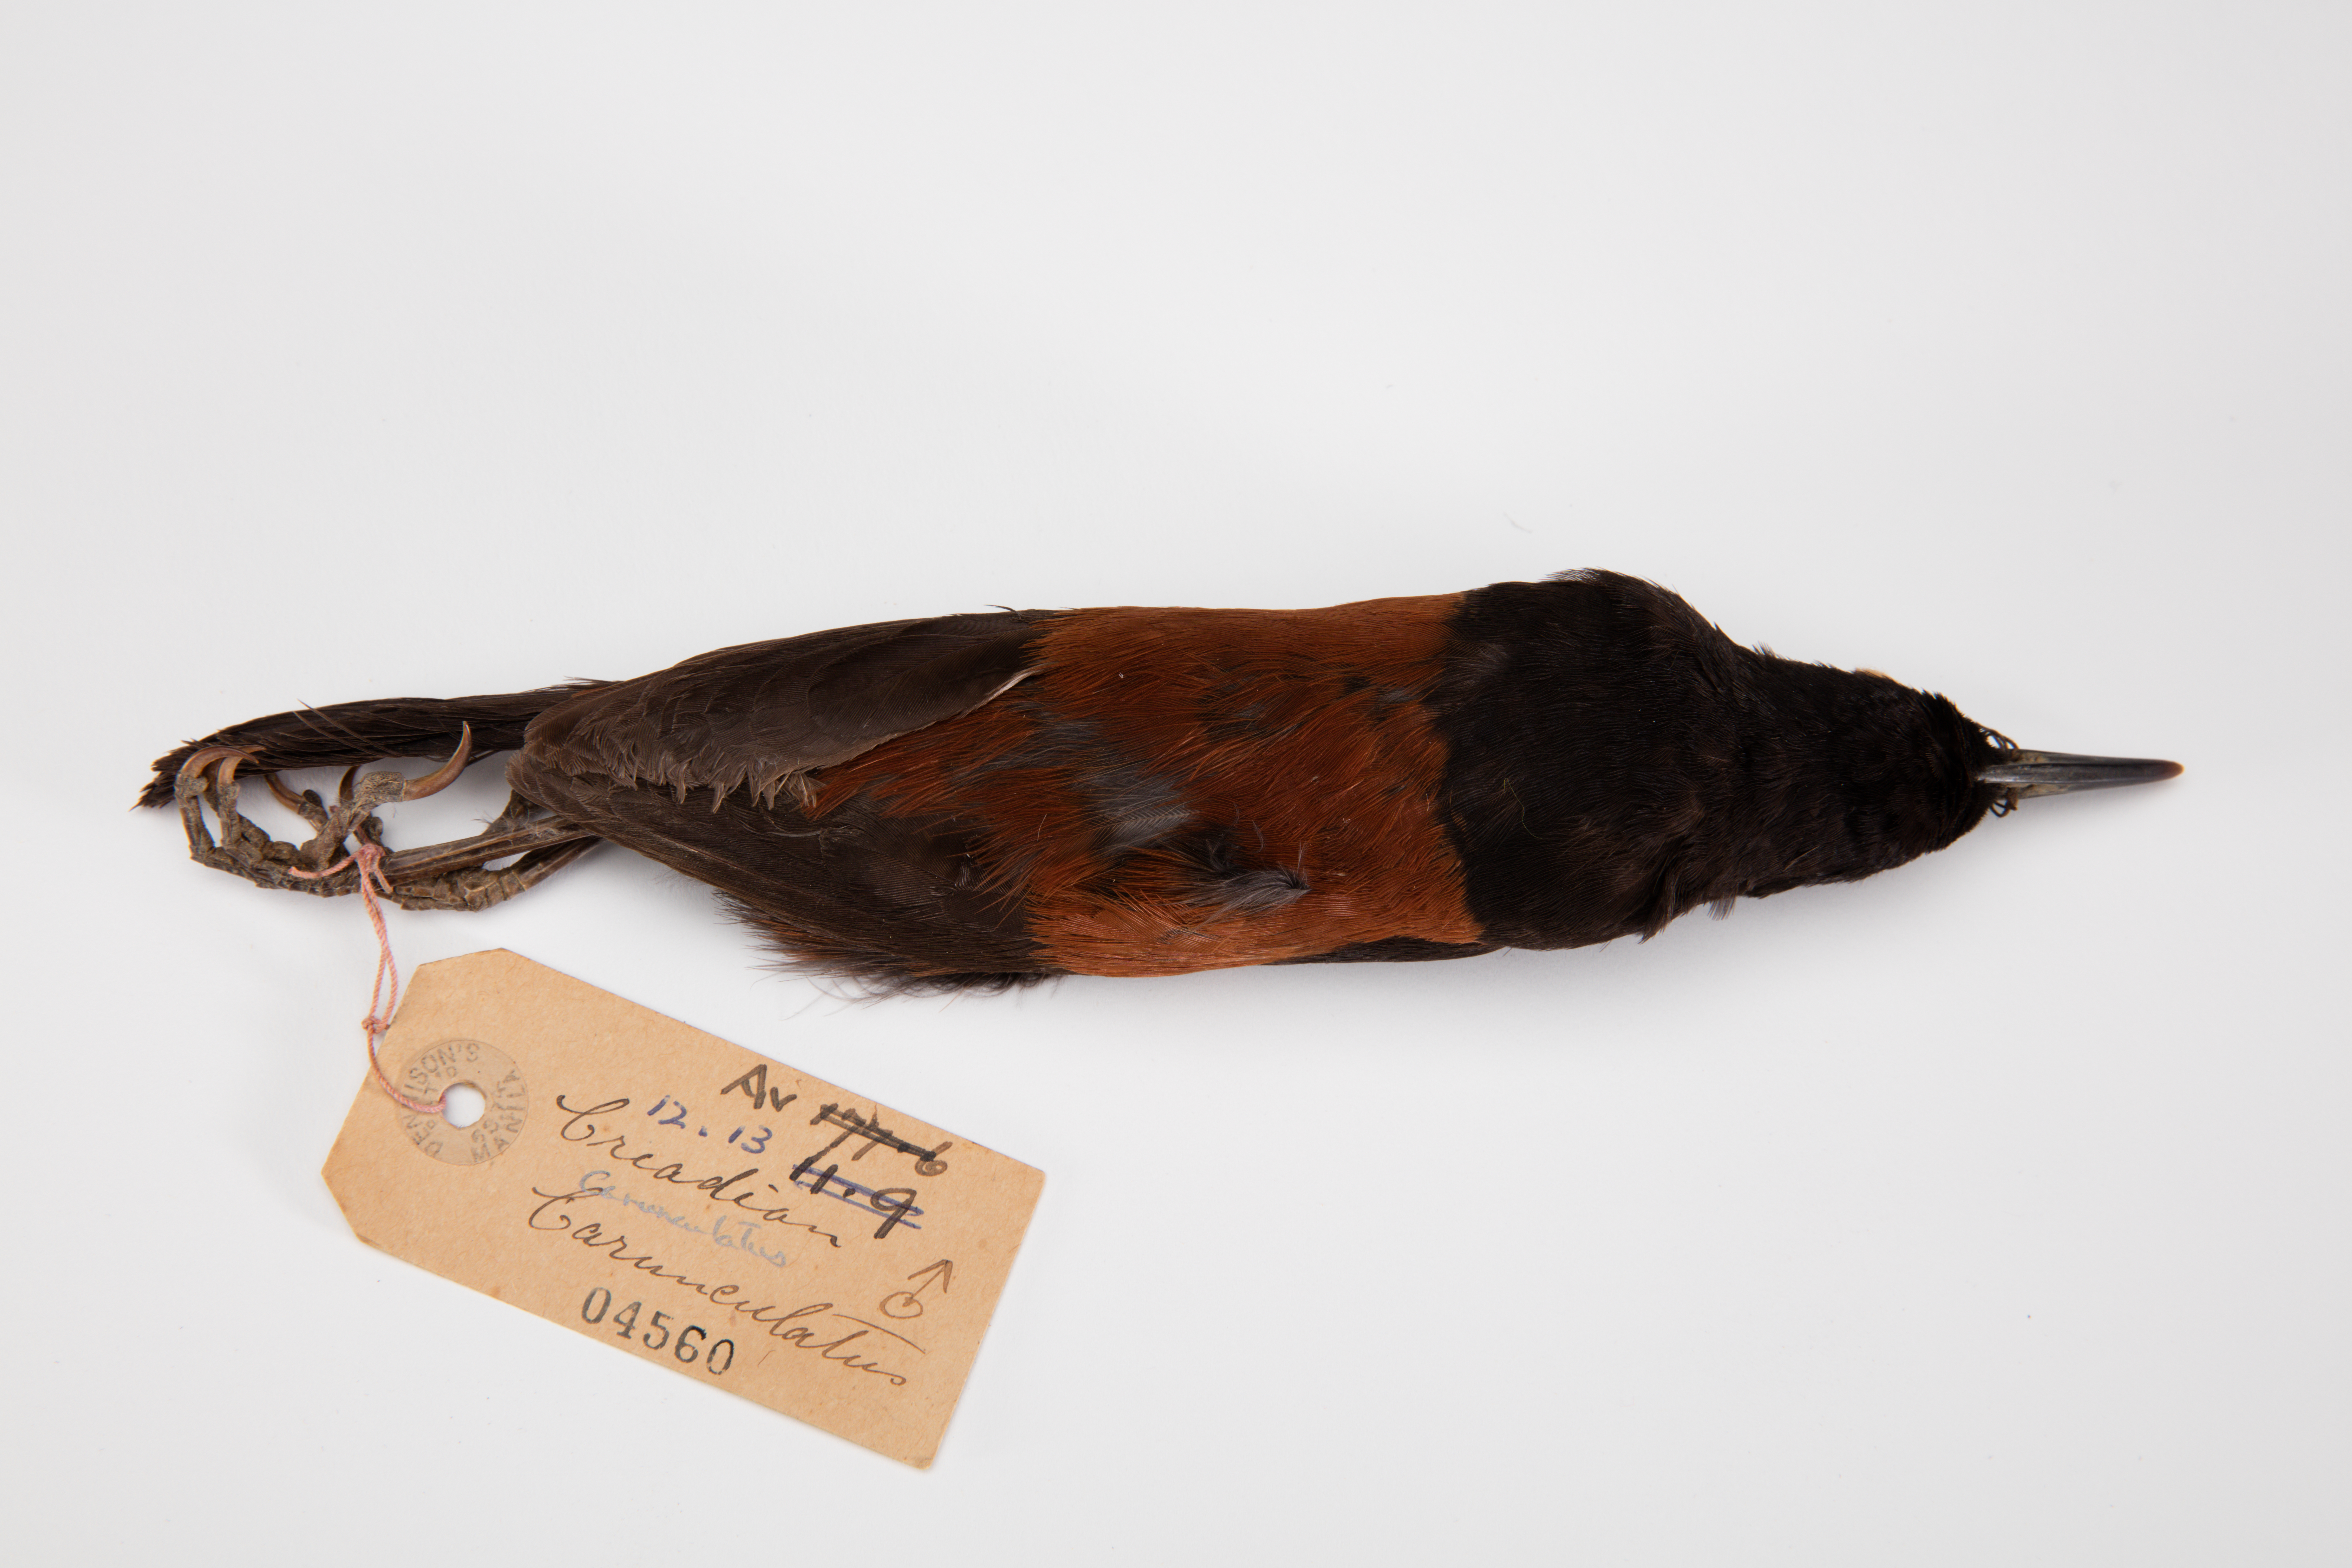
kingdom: Animalia
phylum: Chordata
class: Aves
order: Passeriformes
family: Callaeatidae
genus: Philesturnus
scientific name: Philesturnus carunculatus
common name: South island saddleback
